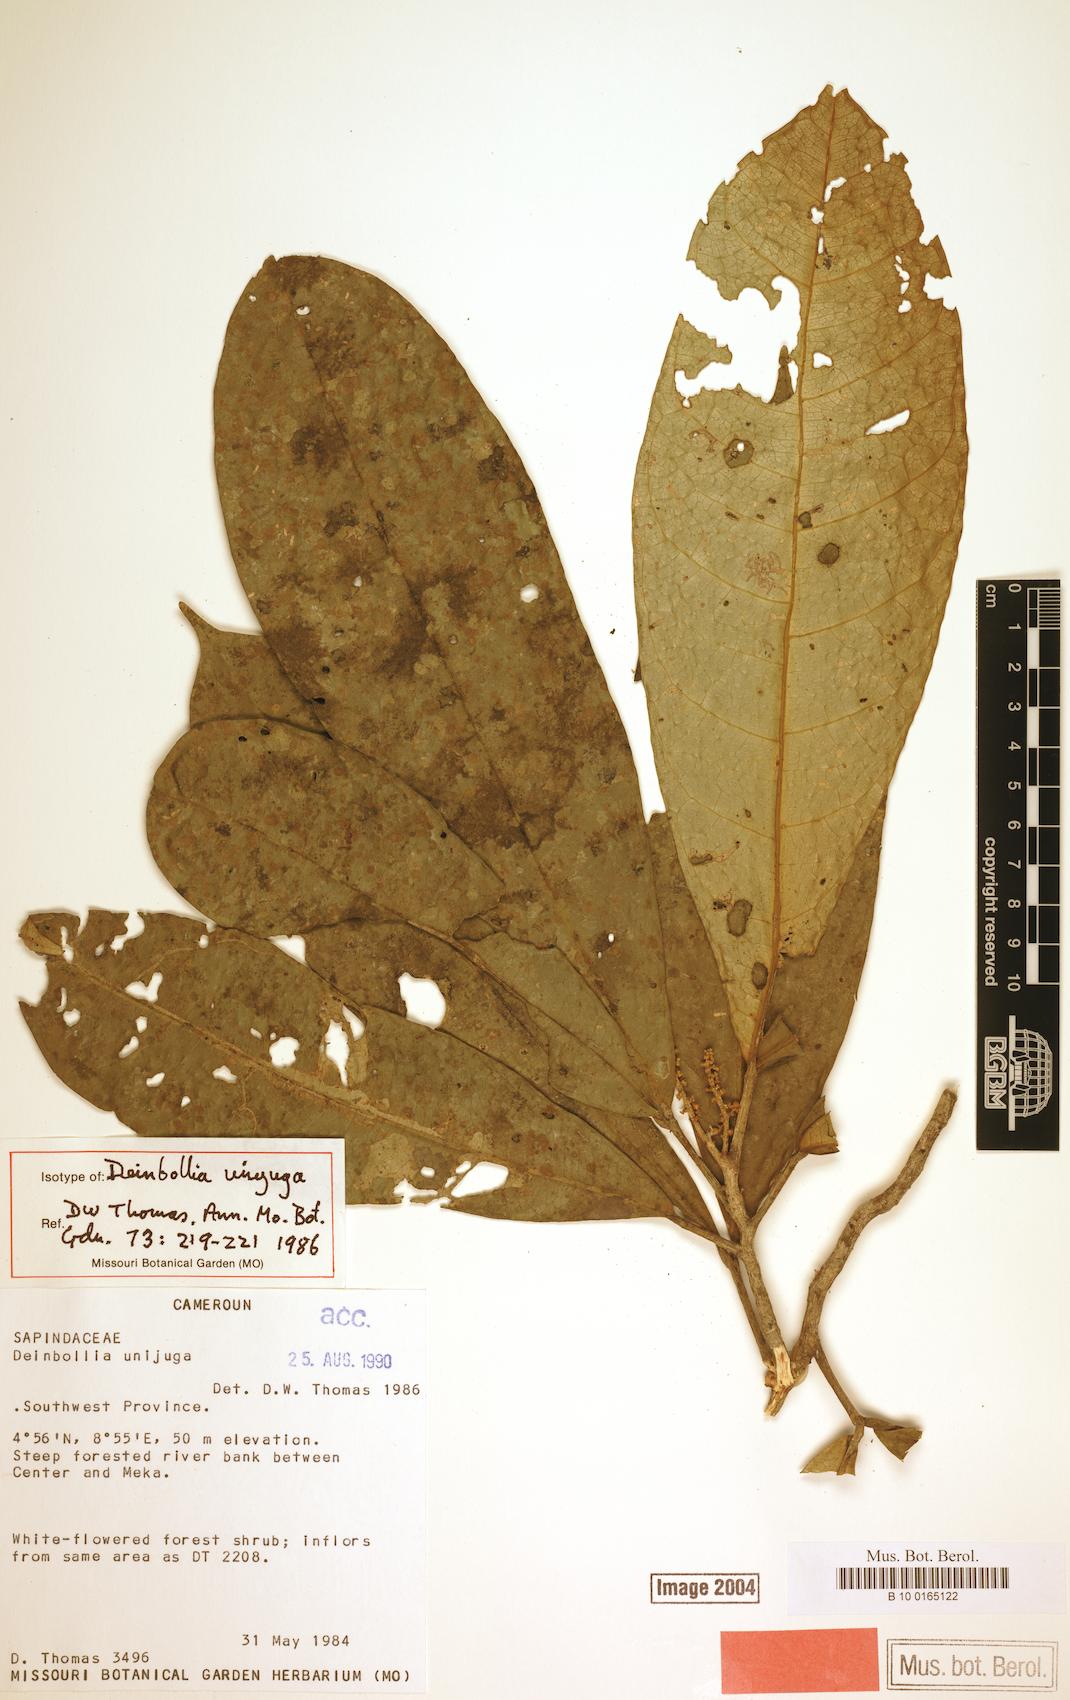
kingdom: Plantae
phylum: Tracheophyta
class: Magnoliopsida
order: Sapindales
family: Sapindaceae
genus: Deinbollia
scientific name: Deinbollia unijuga
